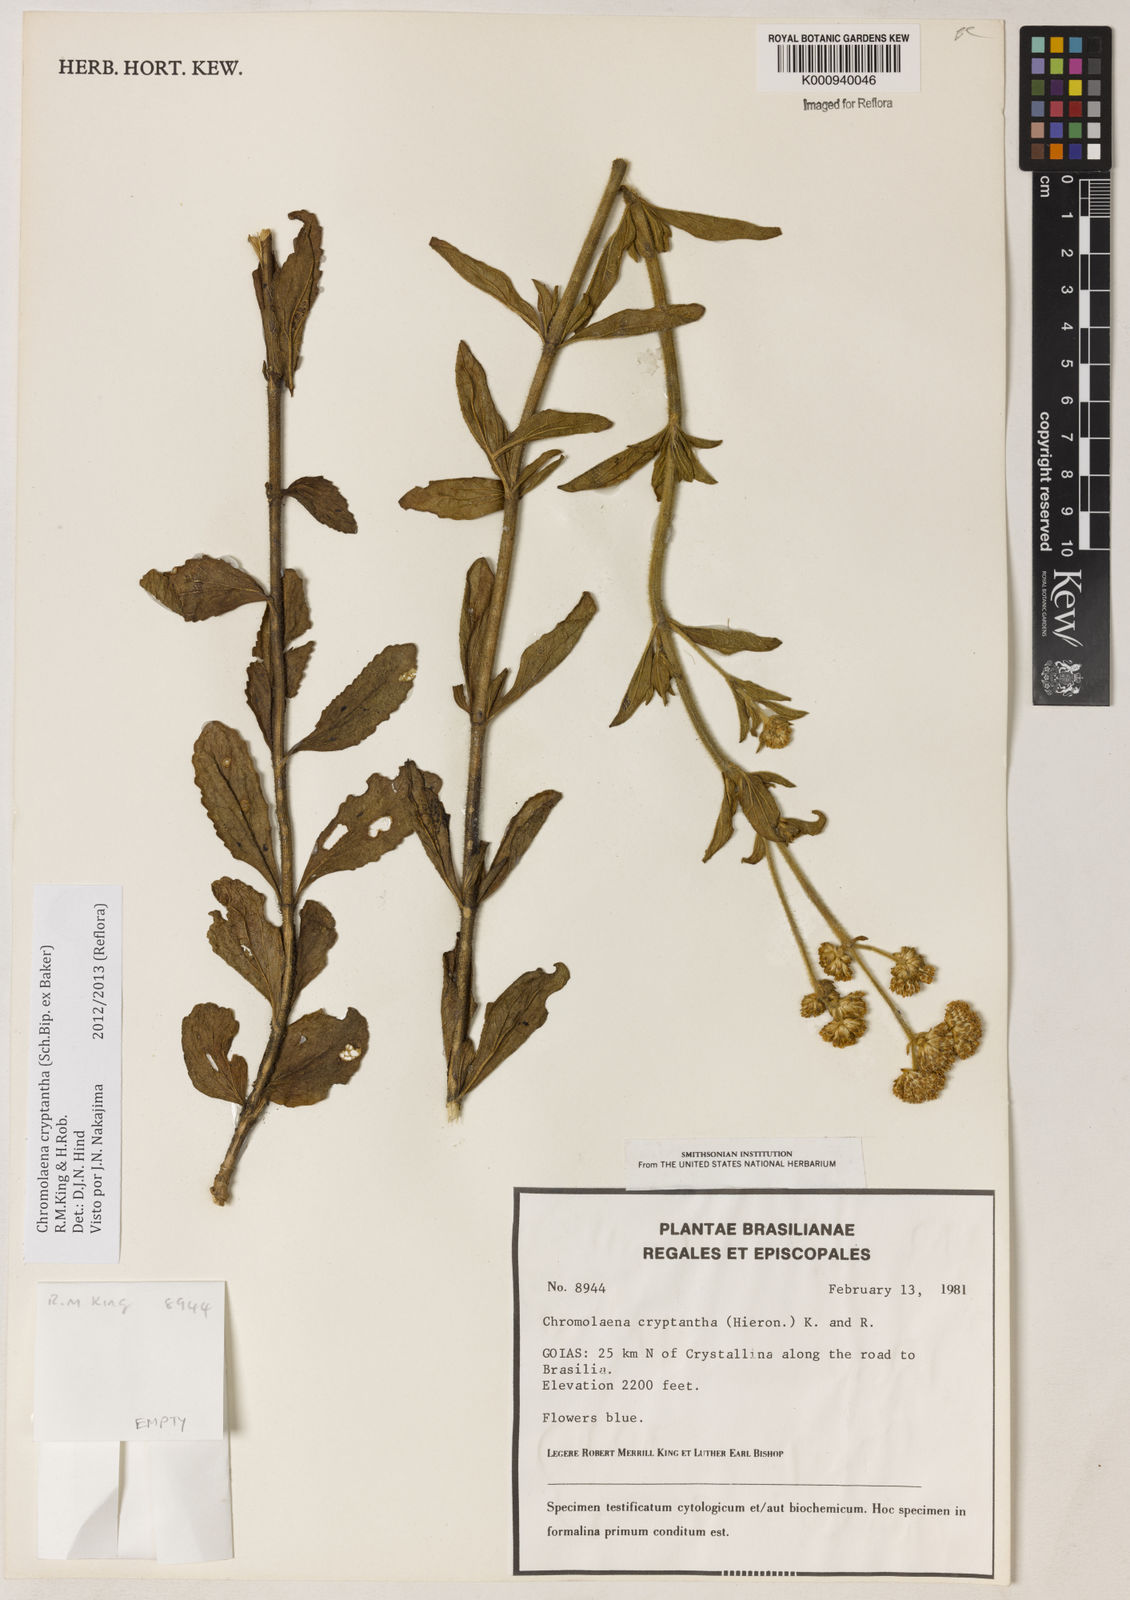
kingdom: Plantae
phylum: Tracheophyta
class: Magnoliopsida
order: Asterales
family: Asteraceae
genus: Chromolaena
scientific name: Chromolaena cryptantha
